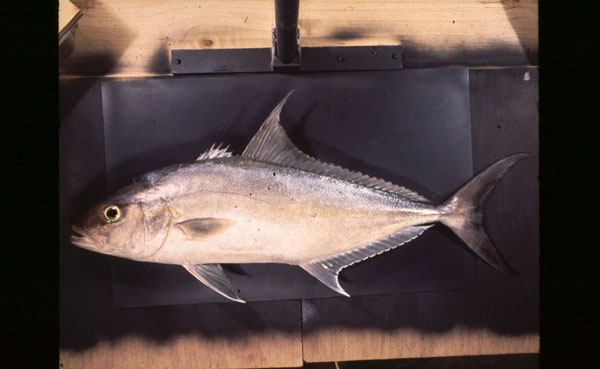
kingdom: Animalia
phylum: Chordata
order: Perciformes
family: Carangidae
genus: Seriola
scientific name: Seriola rivoliana
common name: Almaco jack
